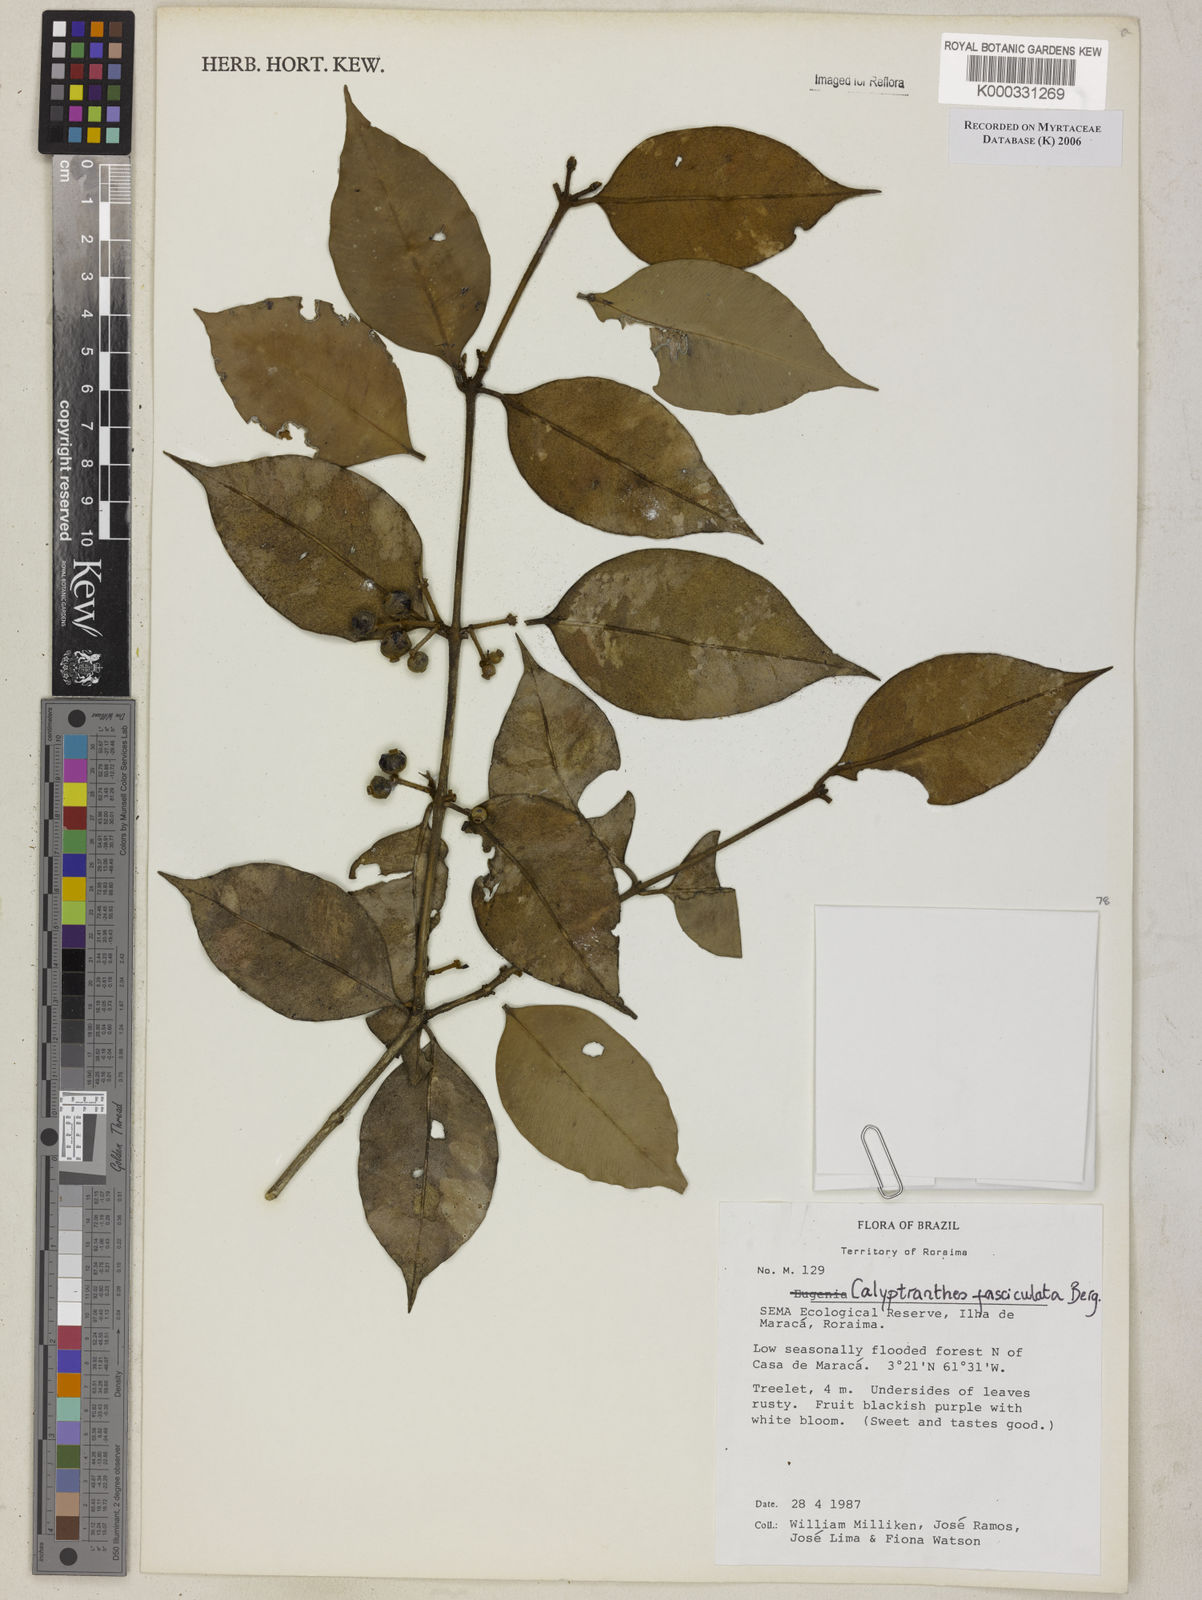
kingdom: Plantae
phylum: Tracheophyta
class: Magnoliopsida
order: Myrtales
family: Myrtaceae
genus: Myrcia
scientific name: Myrcia fasciculata
